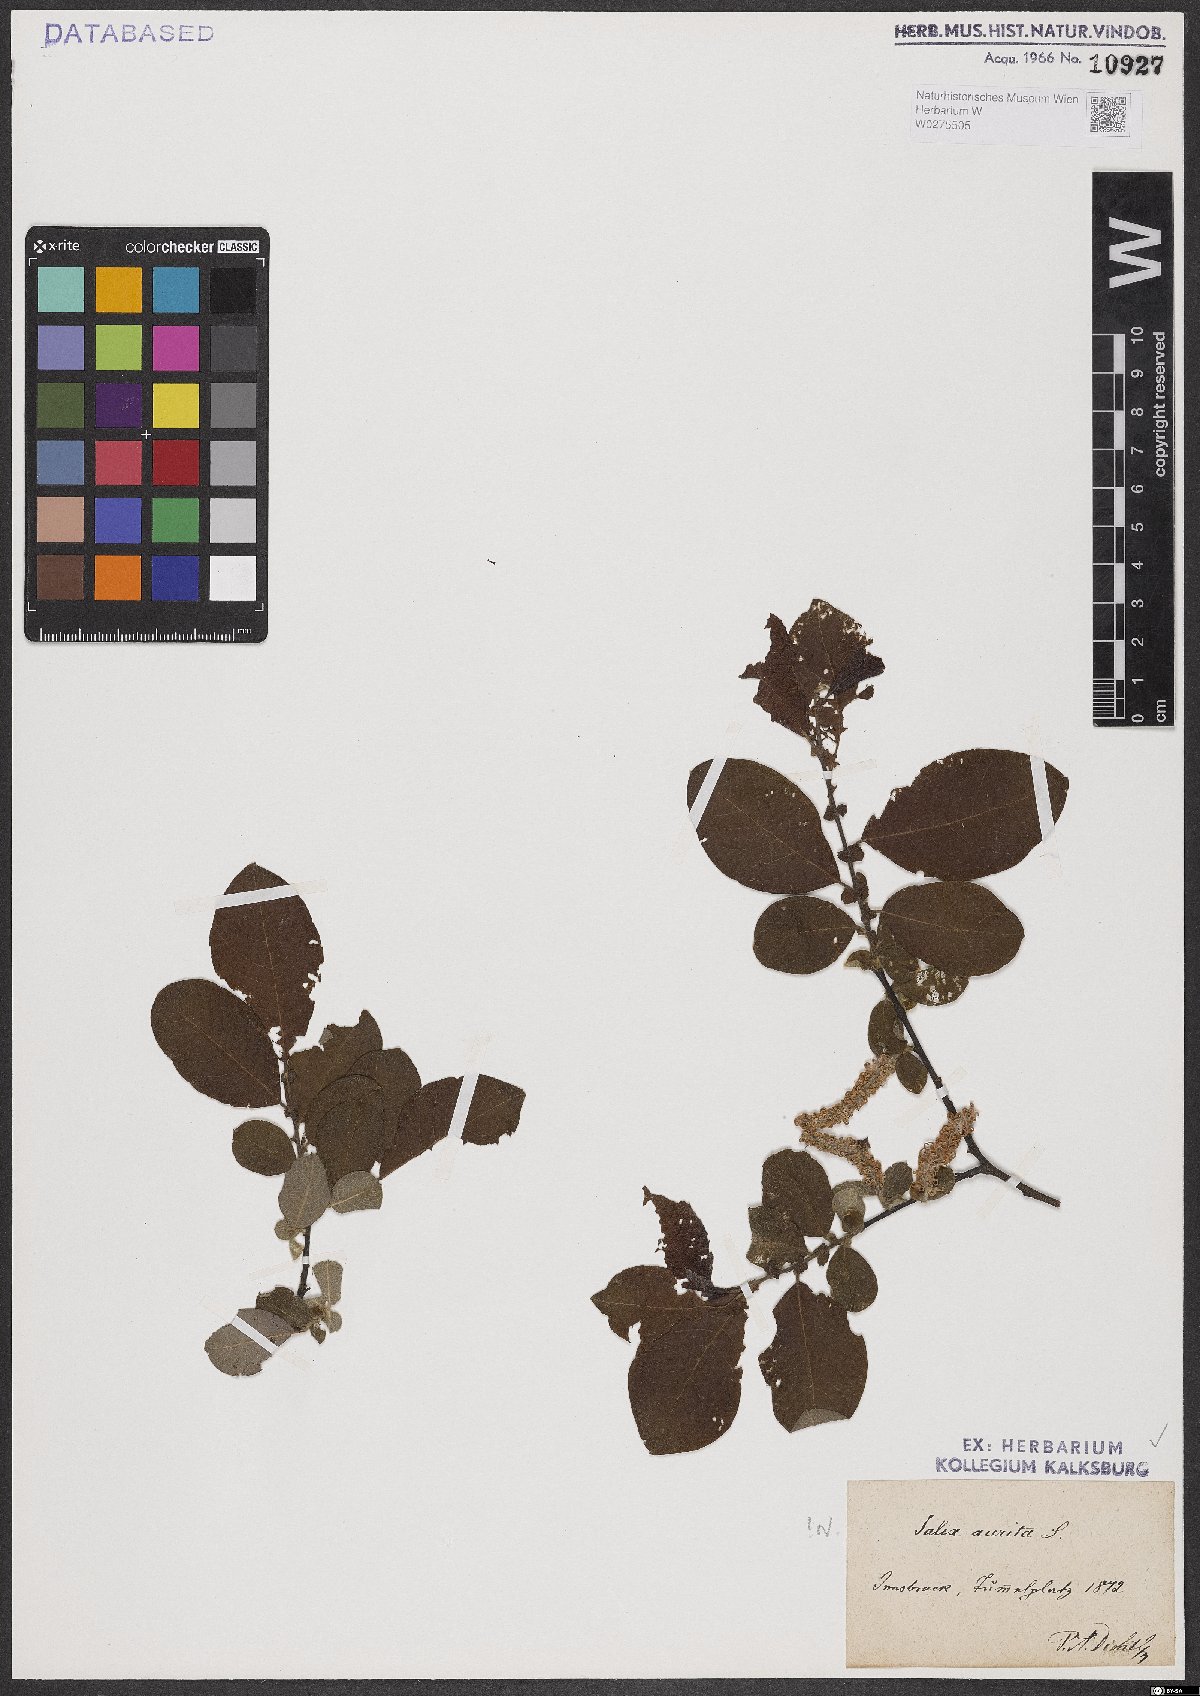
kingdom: Plantae
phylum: Tracheophyta
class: Magnoliopsida
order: Malpighiales
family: Salicaceae
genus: Salix
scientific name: Salix aurita
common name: Eared willow
